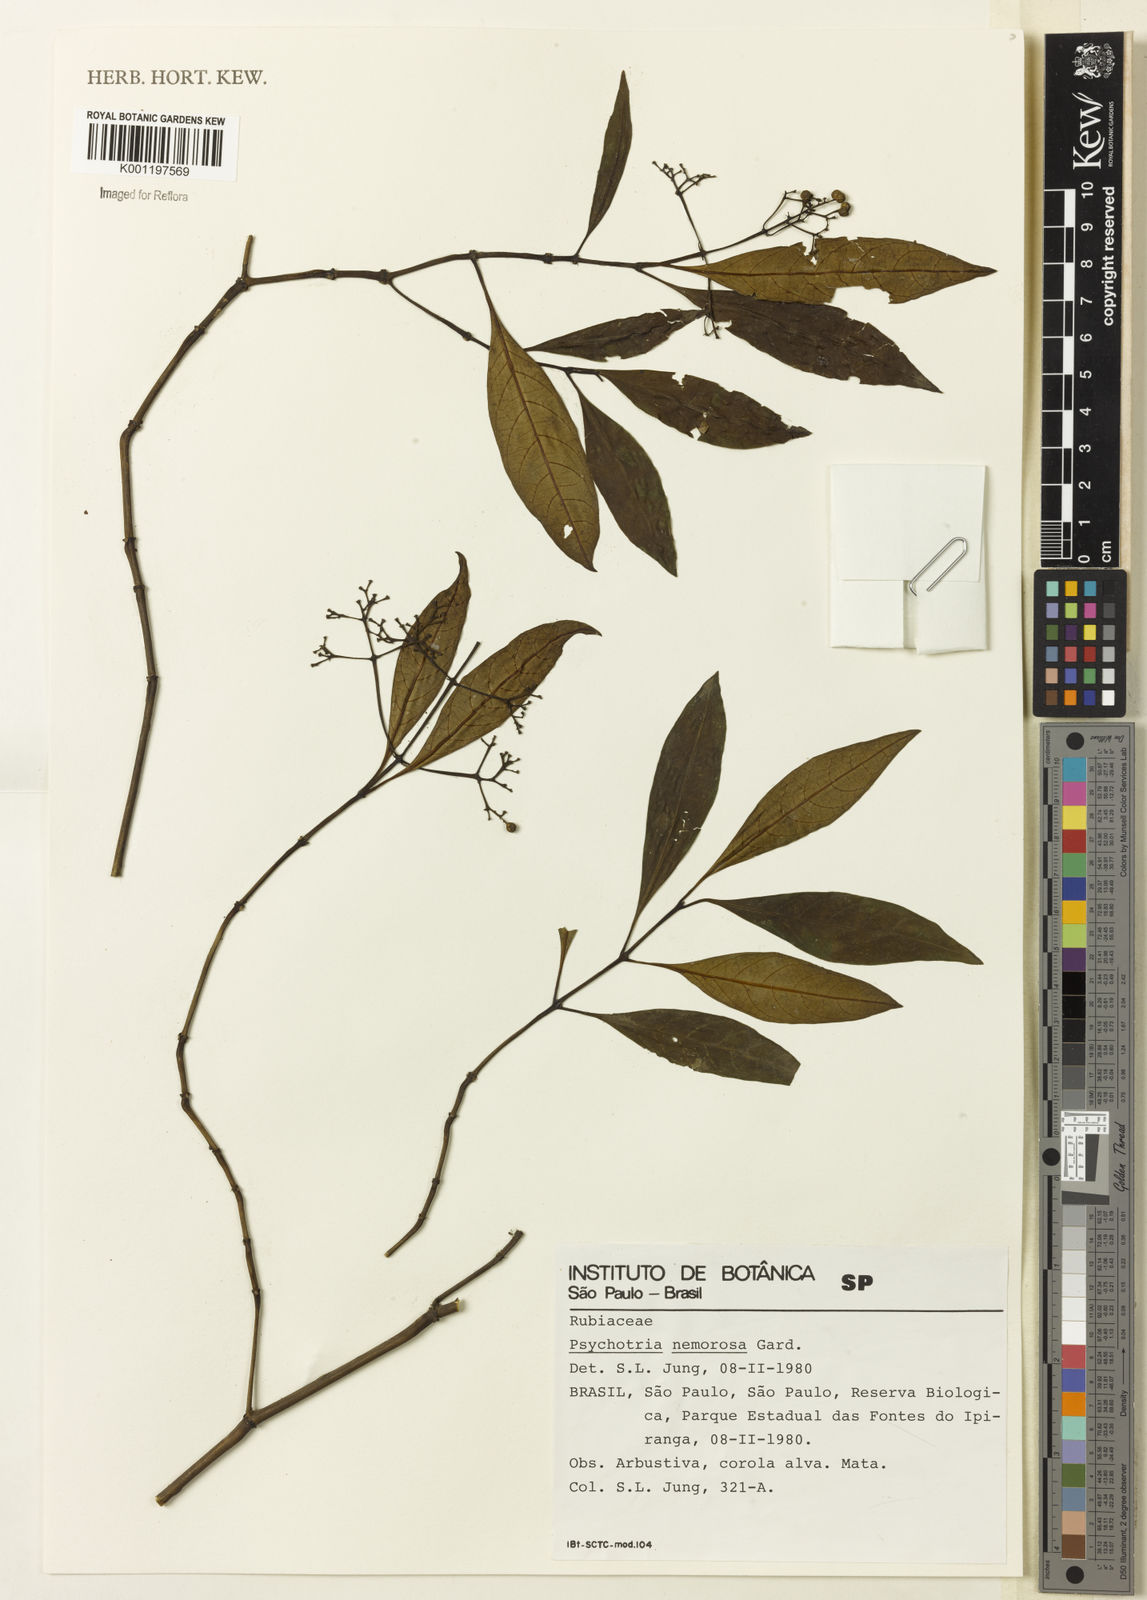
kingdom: Plantae
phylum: Tracheophyta
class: Magnoliopsida
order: Gentianales
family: Rubiaceae
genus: Psychotria
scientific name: Psychotria nemorosa
